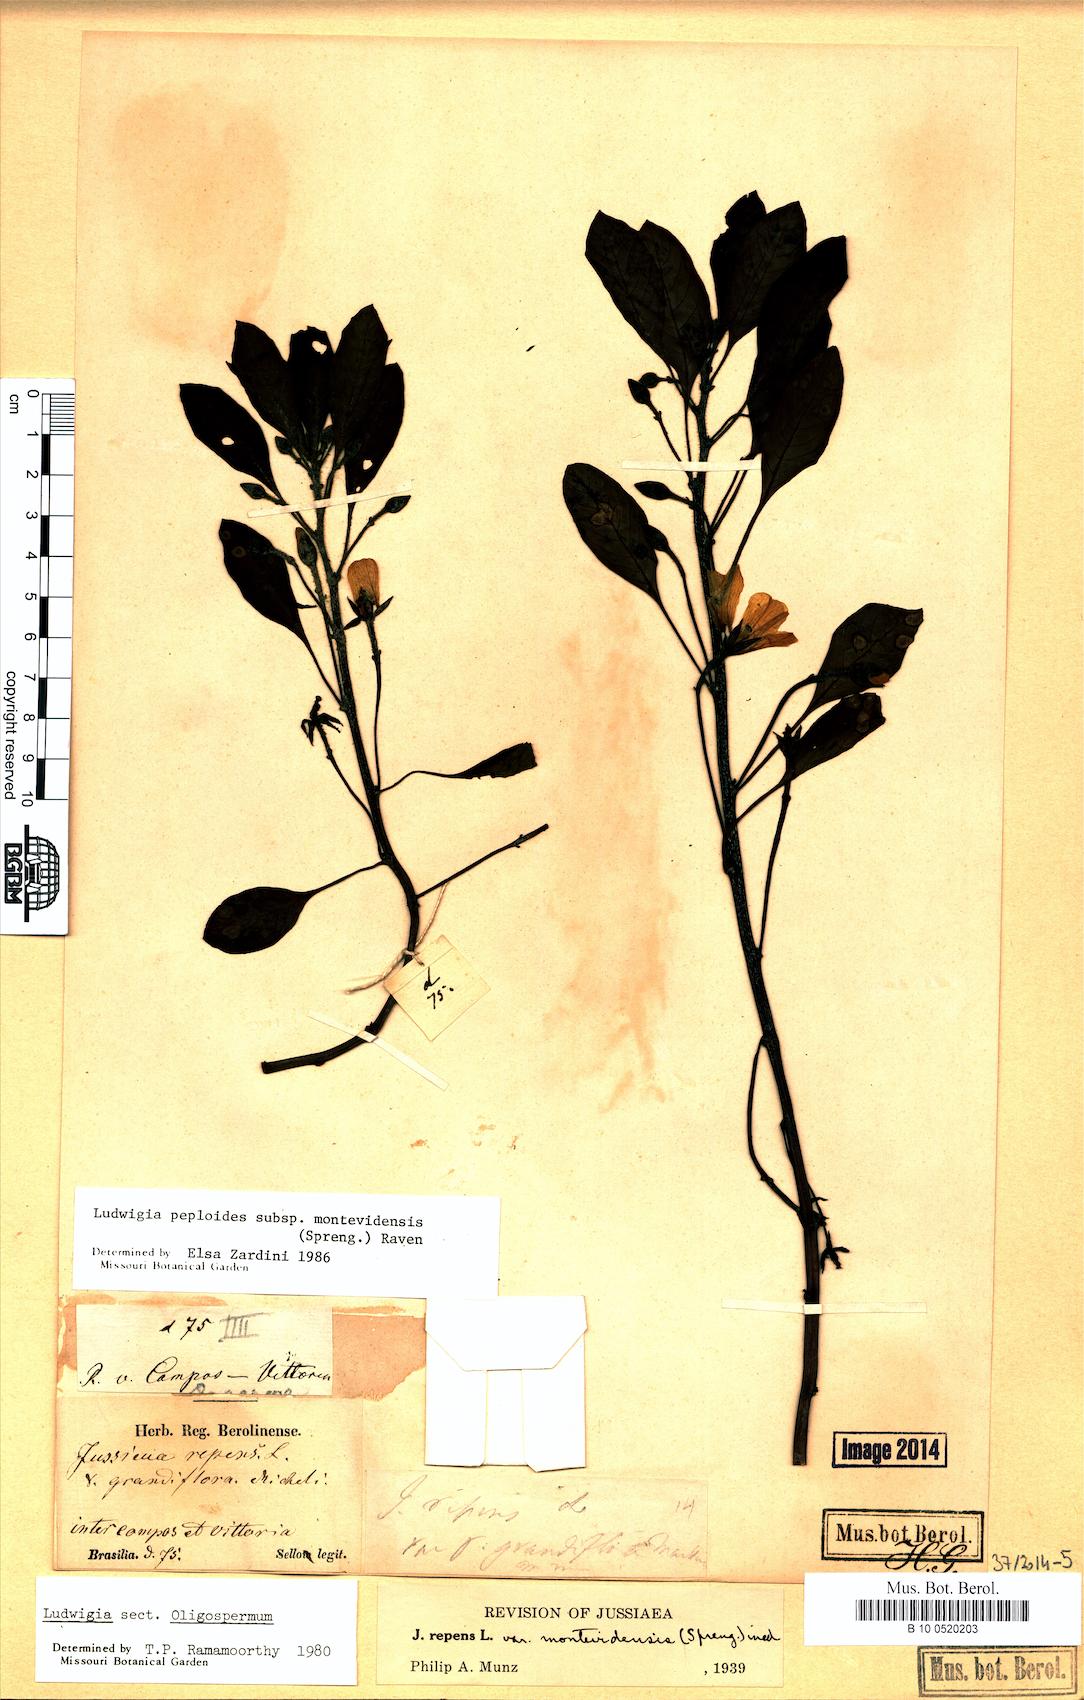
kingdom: Plantae
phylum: Tracheophyta
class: Magnoliopsida
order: Myrtales
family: Onagraceae
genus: Ludwigia
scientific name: Ludwigia peploides
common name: Floating primrose-willow
